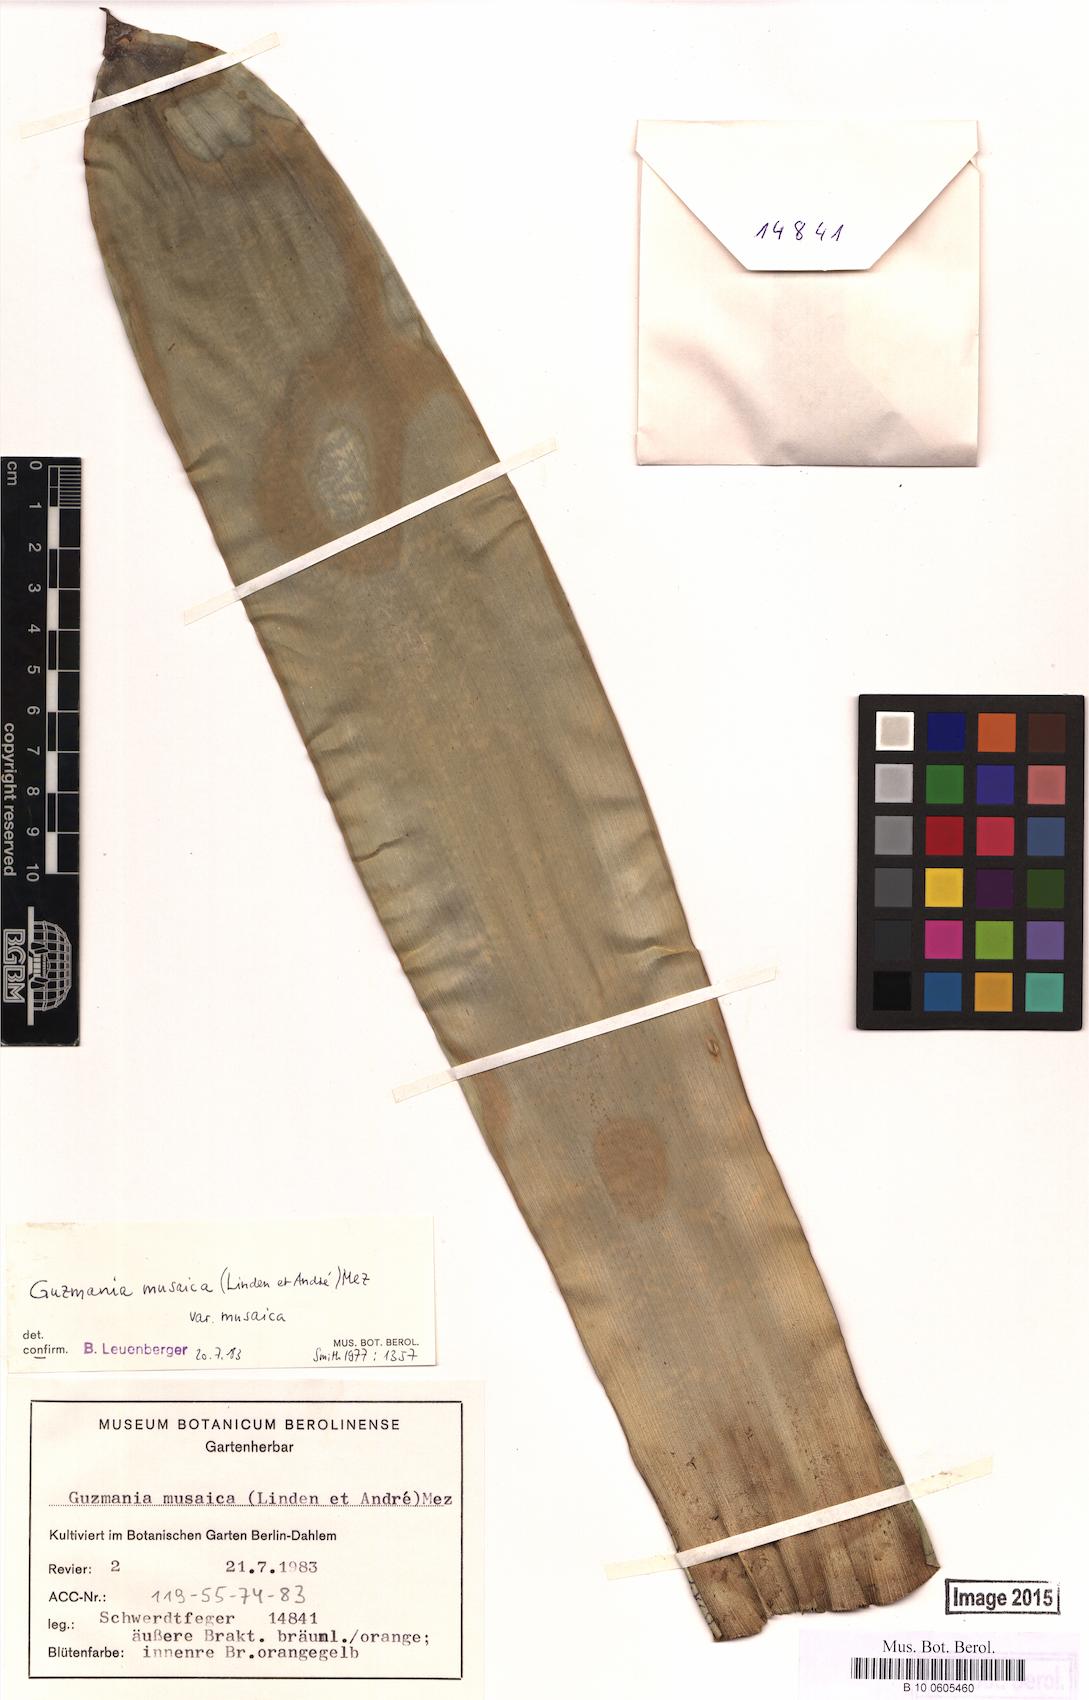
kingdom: Plantae
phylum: Tracheophyta
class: Liliopsida
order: Poales
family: Bromeliaceae
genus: Guzmania
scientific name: Guzmania musaica
